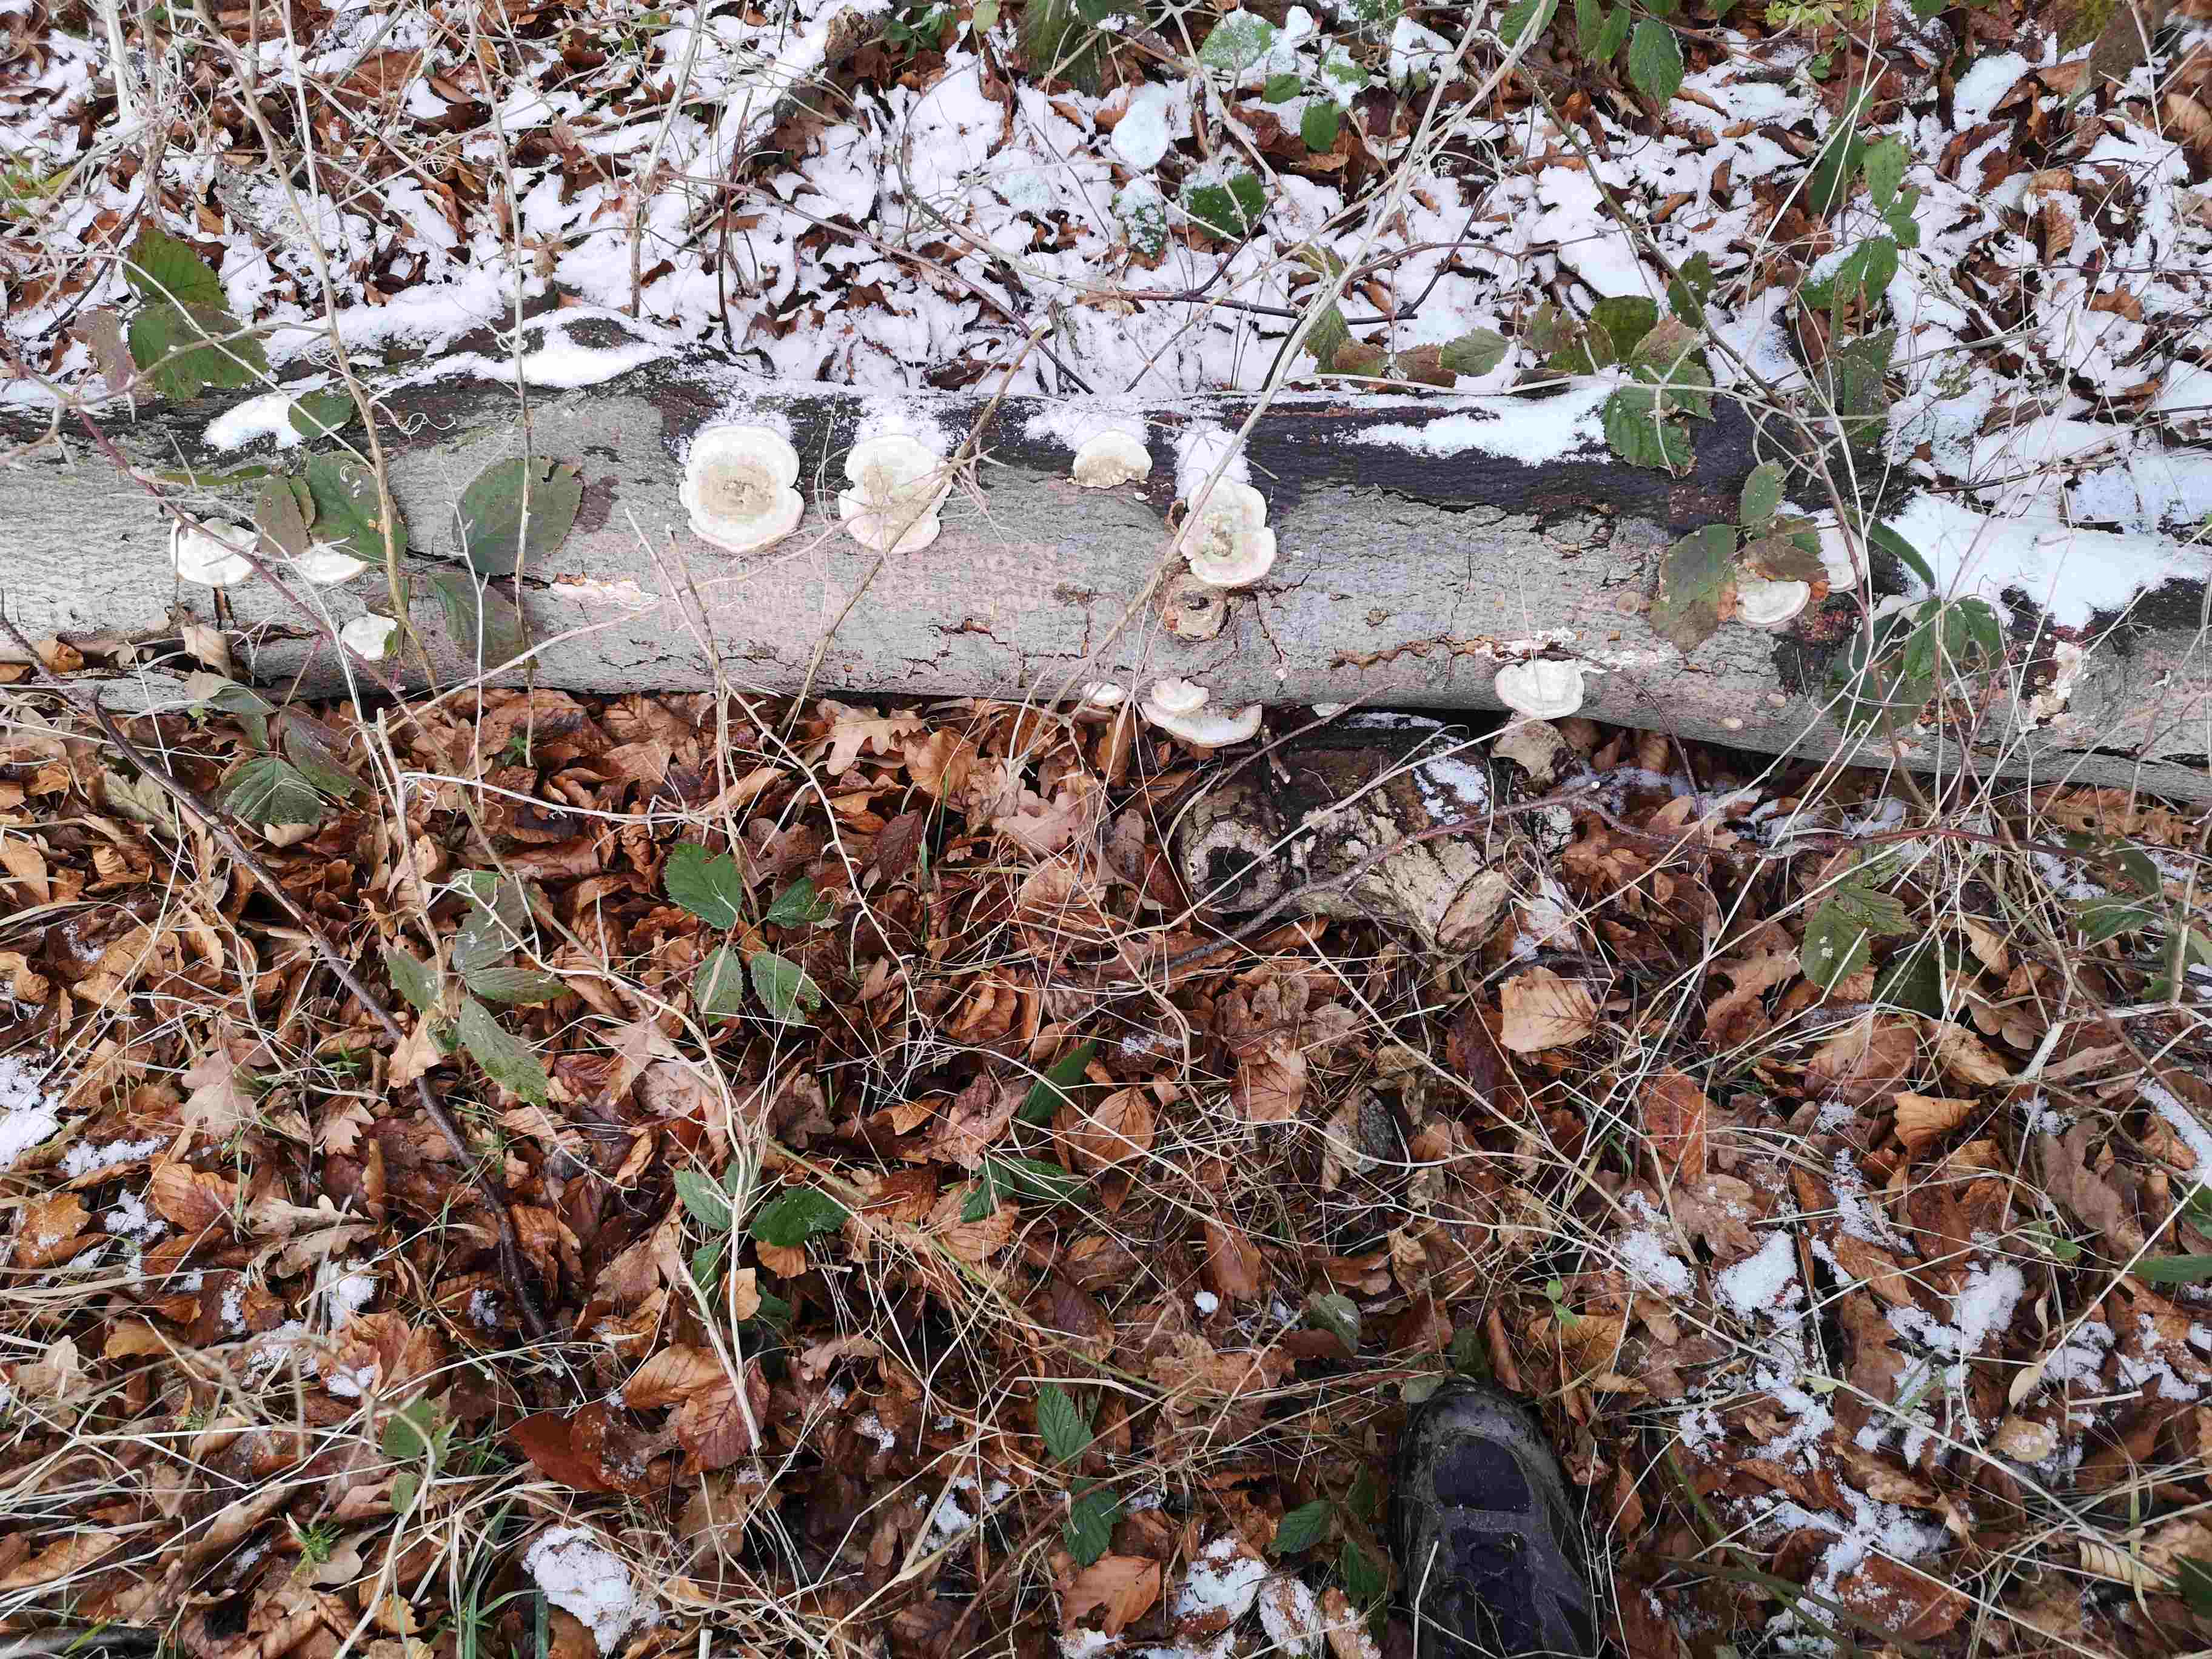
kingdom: Fungi
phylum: Basidiomycota
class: Agaricomycetes
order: Polyporales
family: Polyporaceae
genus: Trametes
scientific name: Trametes hirsuta
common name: håret læderporesvamp
